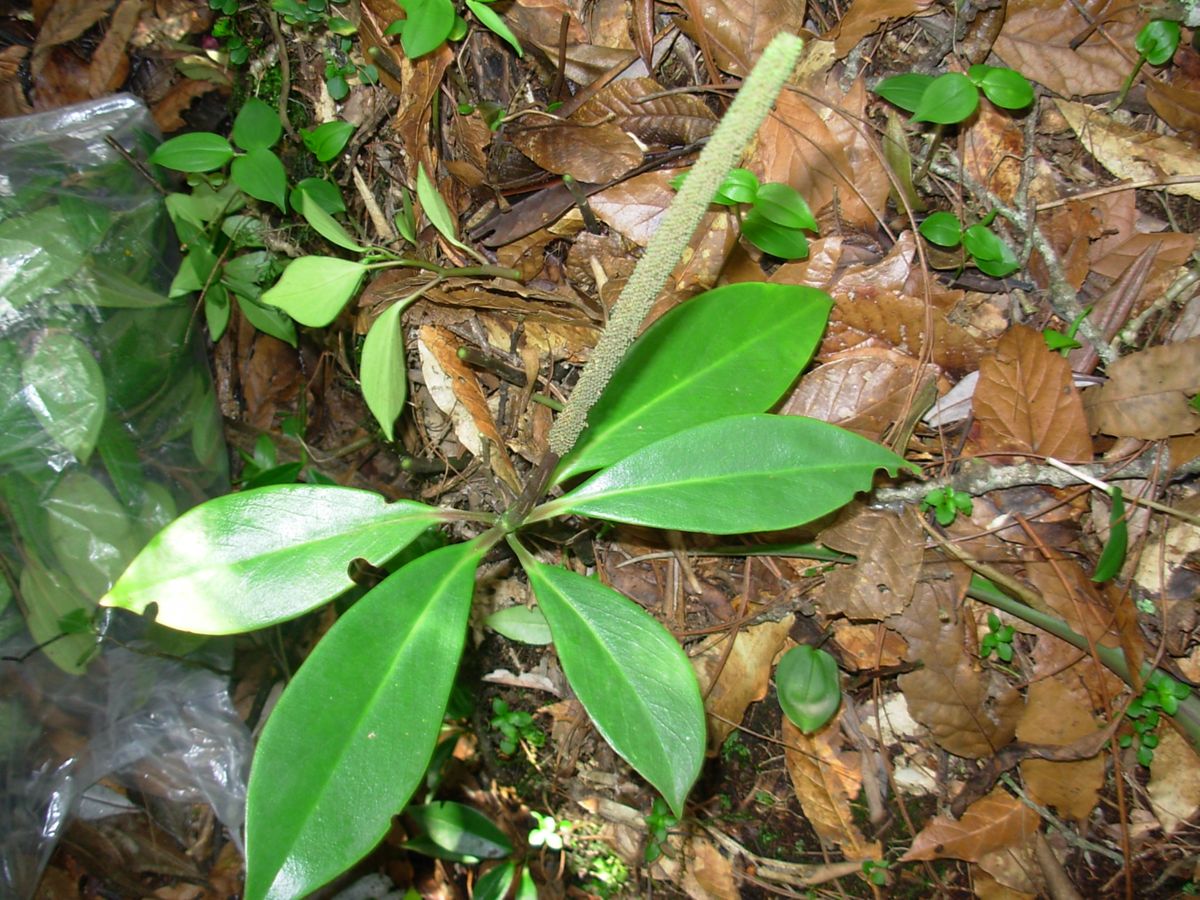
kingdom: Plantae
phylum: Tracheophyta
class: Magnoliopsida
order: Piperales
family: Piperaceae
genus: Peperomia
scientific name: Peperomia acuminata
